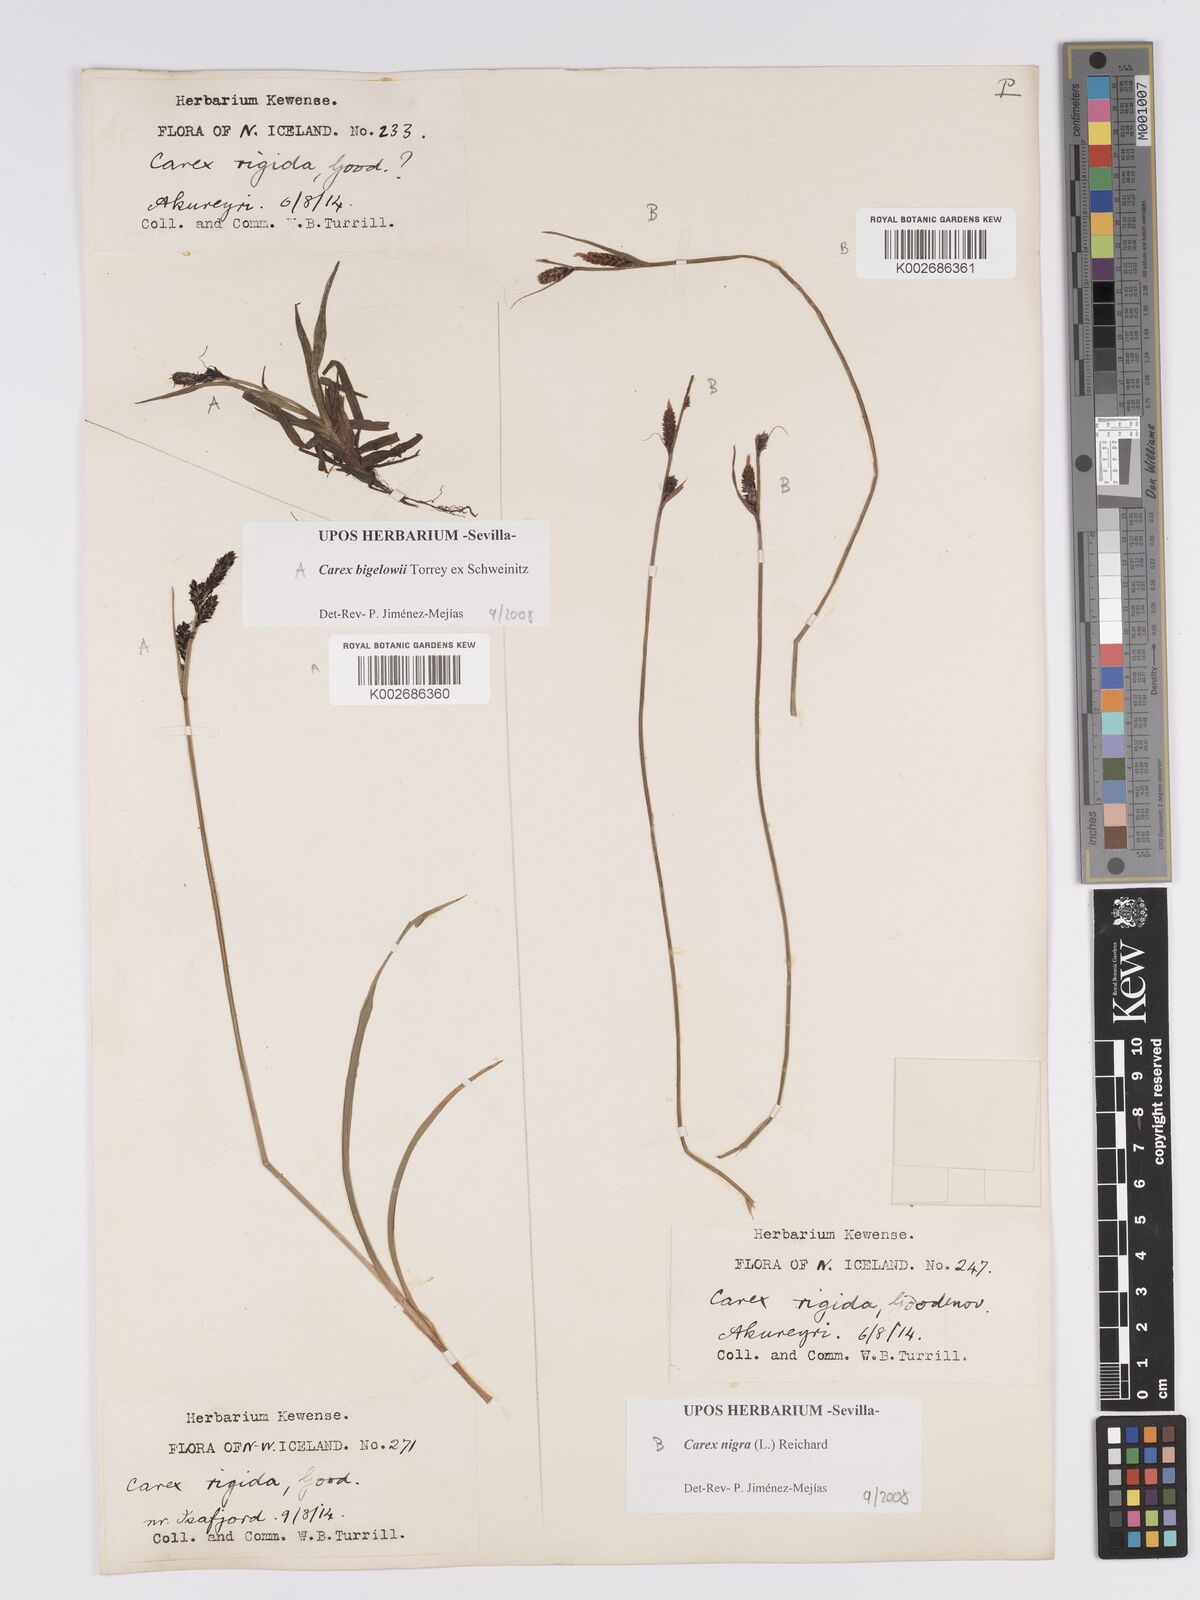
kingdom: Plantae
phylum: Tracheophyta
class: Liliopsida
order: Poales
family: Cyperaceae
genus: Carex
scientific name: Carex bigelowii
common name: Stiff sedge
